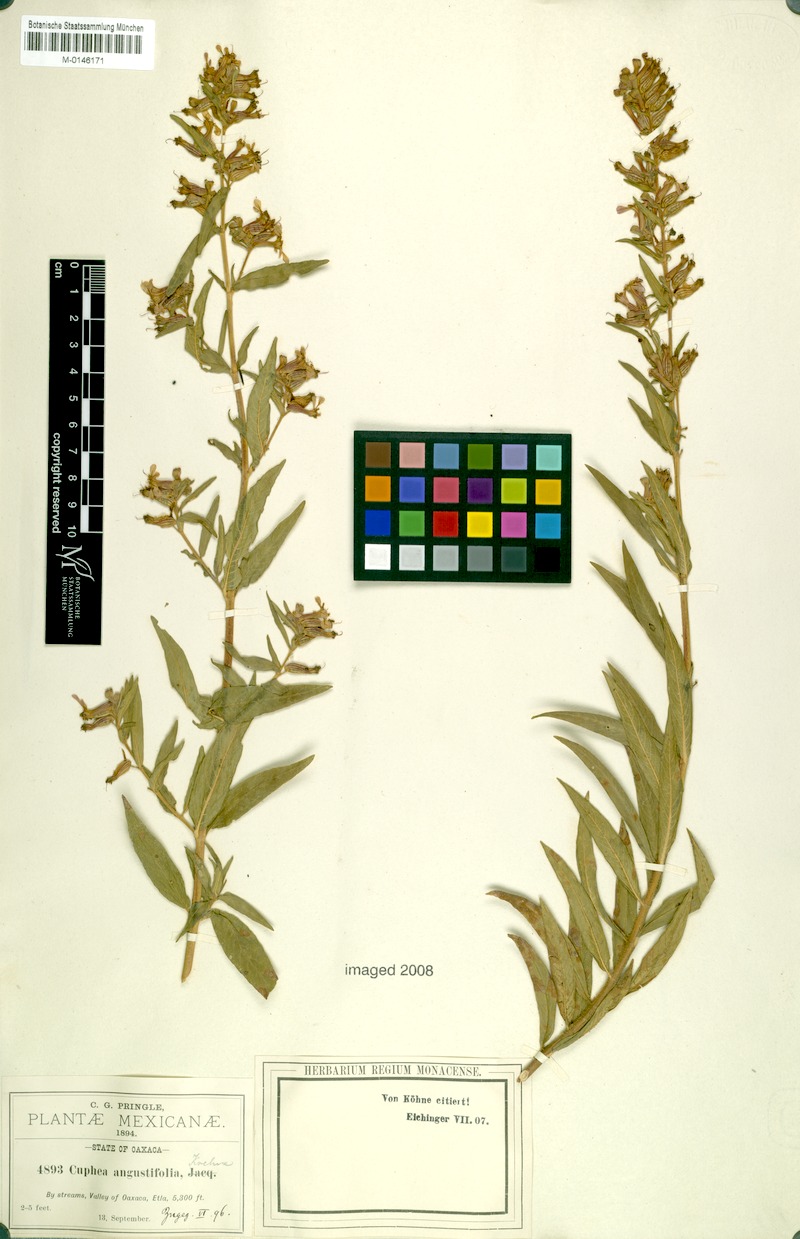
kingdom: Plantae
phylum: Tracheophyta
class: Magnoliopsida
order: Myrtales
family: Lythraceae
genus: Cuphea
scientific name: Cuphea angustifolia
